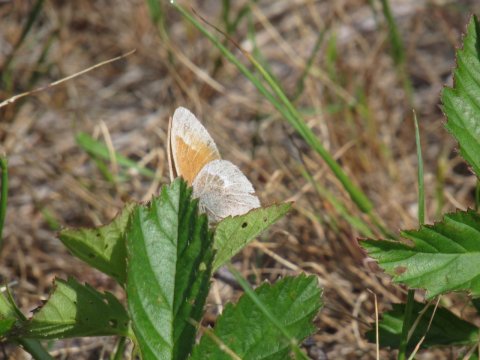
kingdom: Animalia
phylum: Arthropoda
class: Insecta
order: Lepidoptera
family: Nymphalidae
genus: Coenonympha
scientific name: Coenonympha tullia
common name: Large Heath
